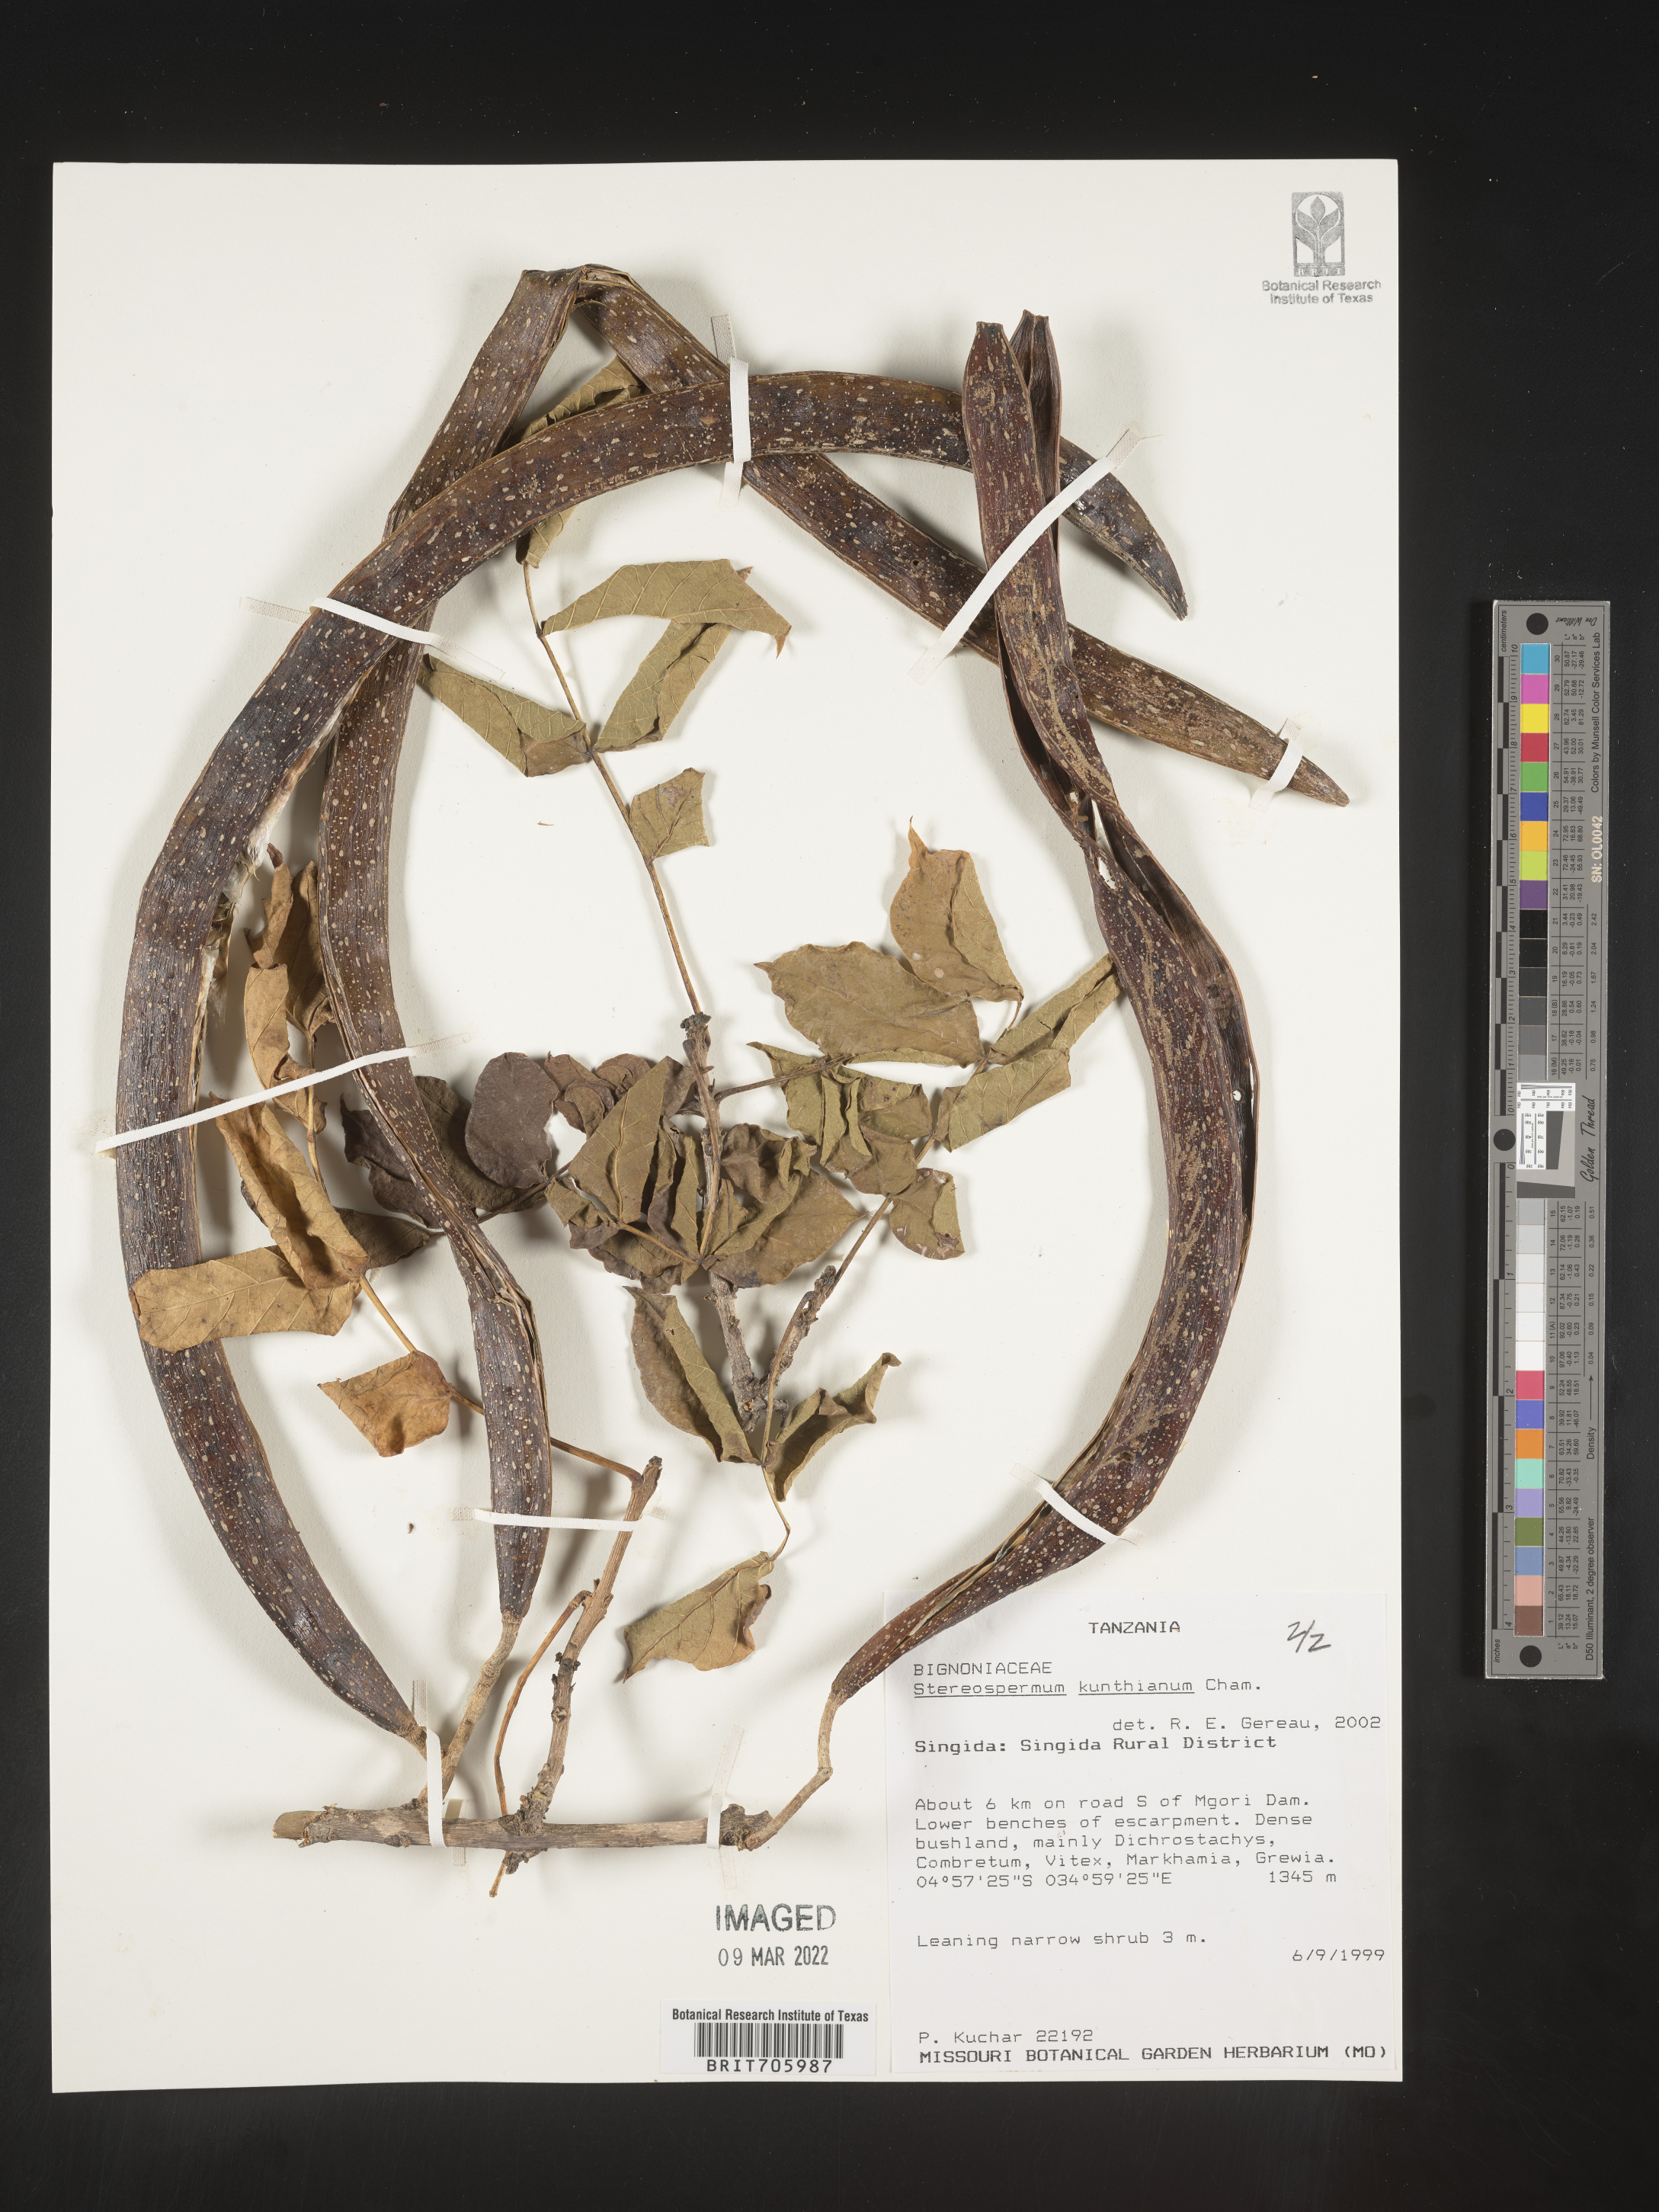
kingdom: Plantae
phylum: Tracheophyta
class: Magnoliopsida
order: Lamiales
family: Bignoniaceae
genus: Stereospermum
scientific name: Stereospermum
